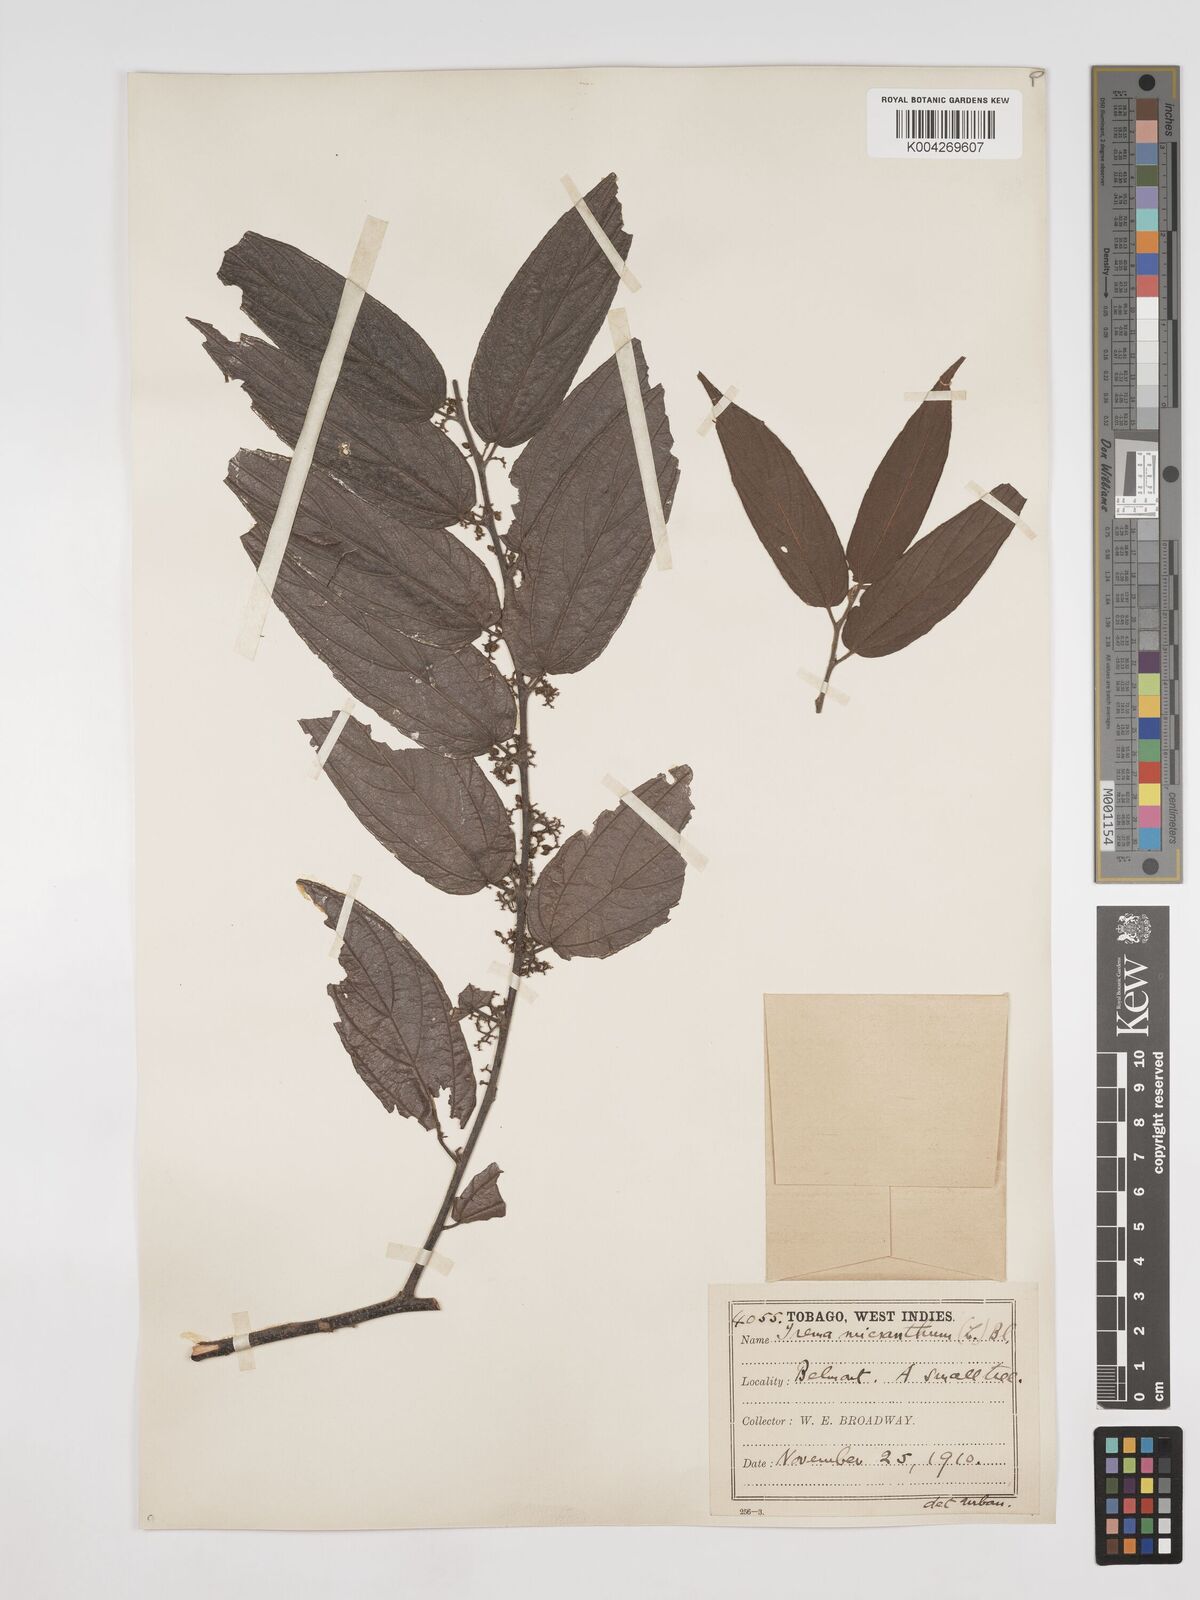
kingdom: Plantae
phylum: Tracheophyta
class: Magnoliopsida
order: Rosales
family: Cannabaceae
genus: Trema
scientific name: Trema micranthum
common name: Jamaican nettletree
